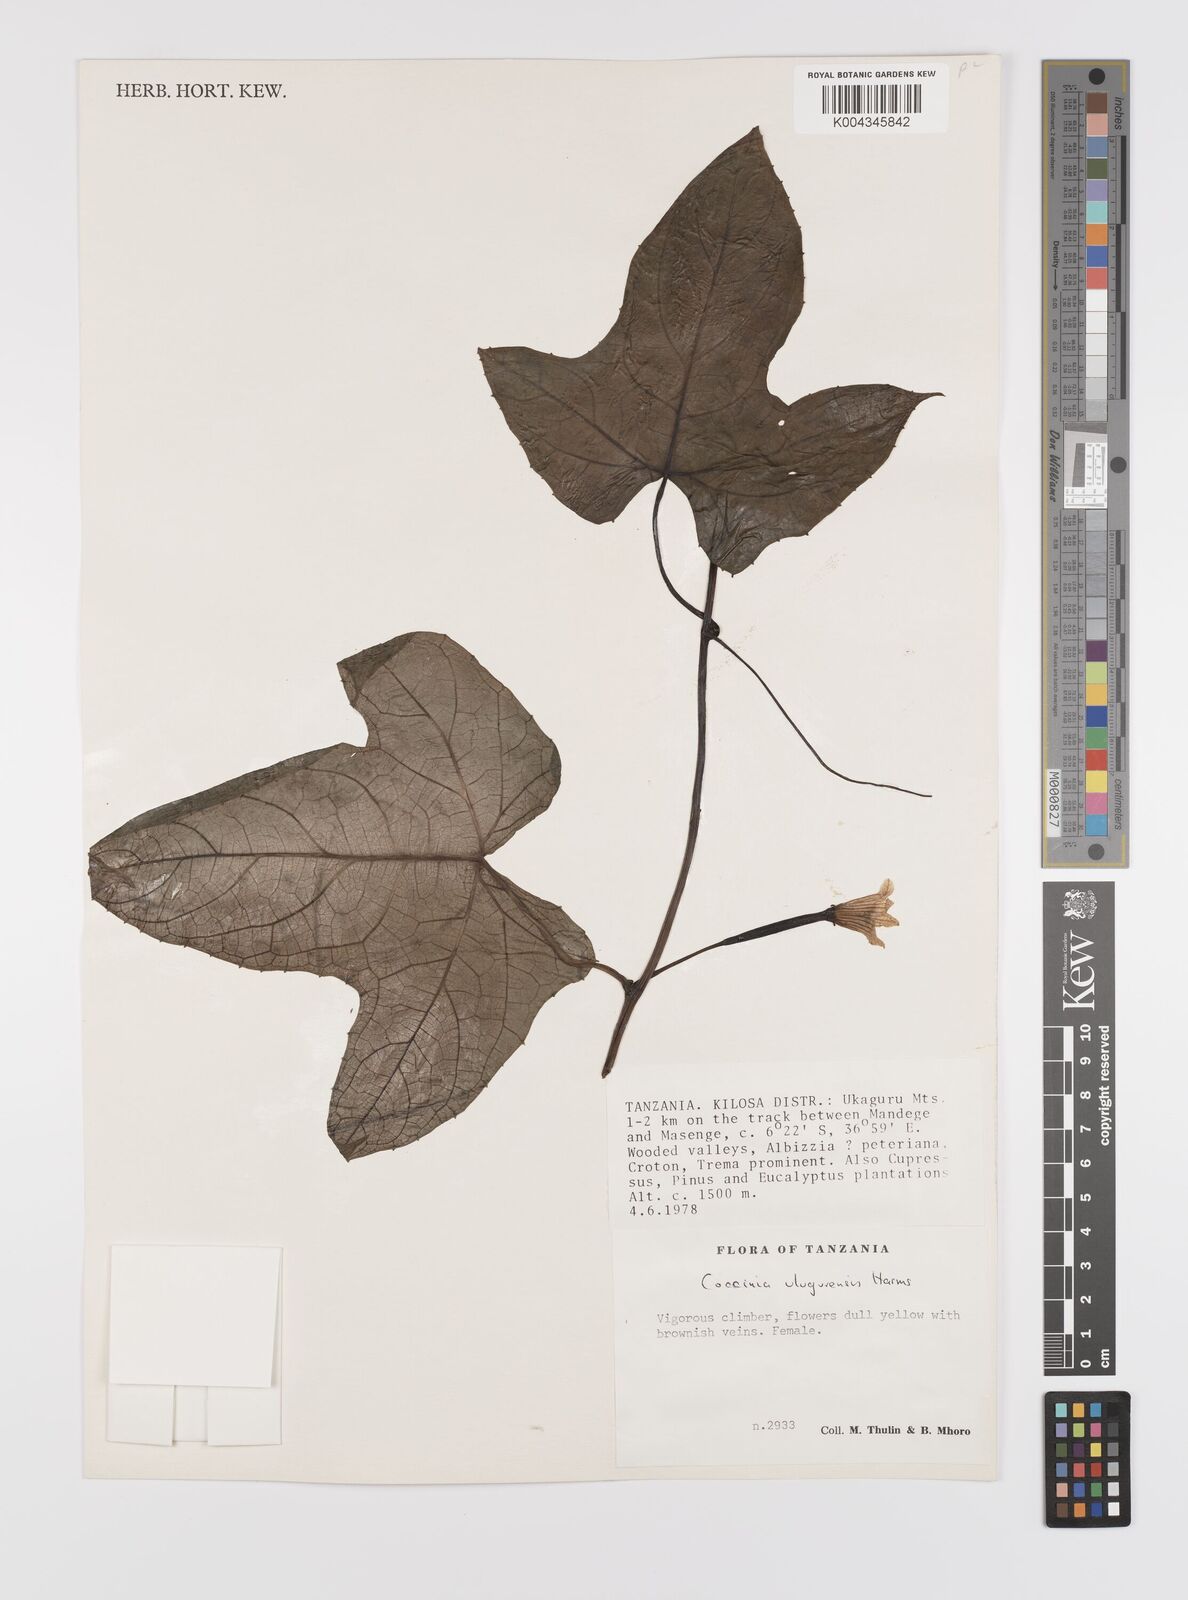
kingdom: Plantae
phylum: Tracheophyta
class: Magnoliopsida
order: Cucurbitales
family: Cucurbitaceae
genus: Coccinia
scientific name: Coccinia mildbraedii
